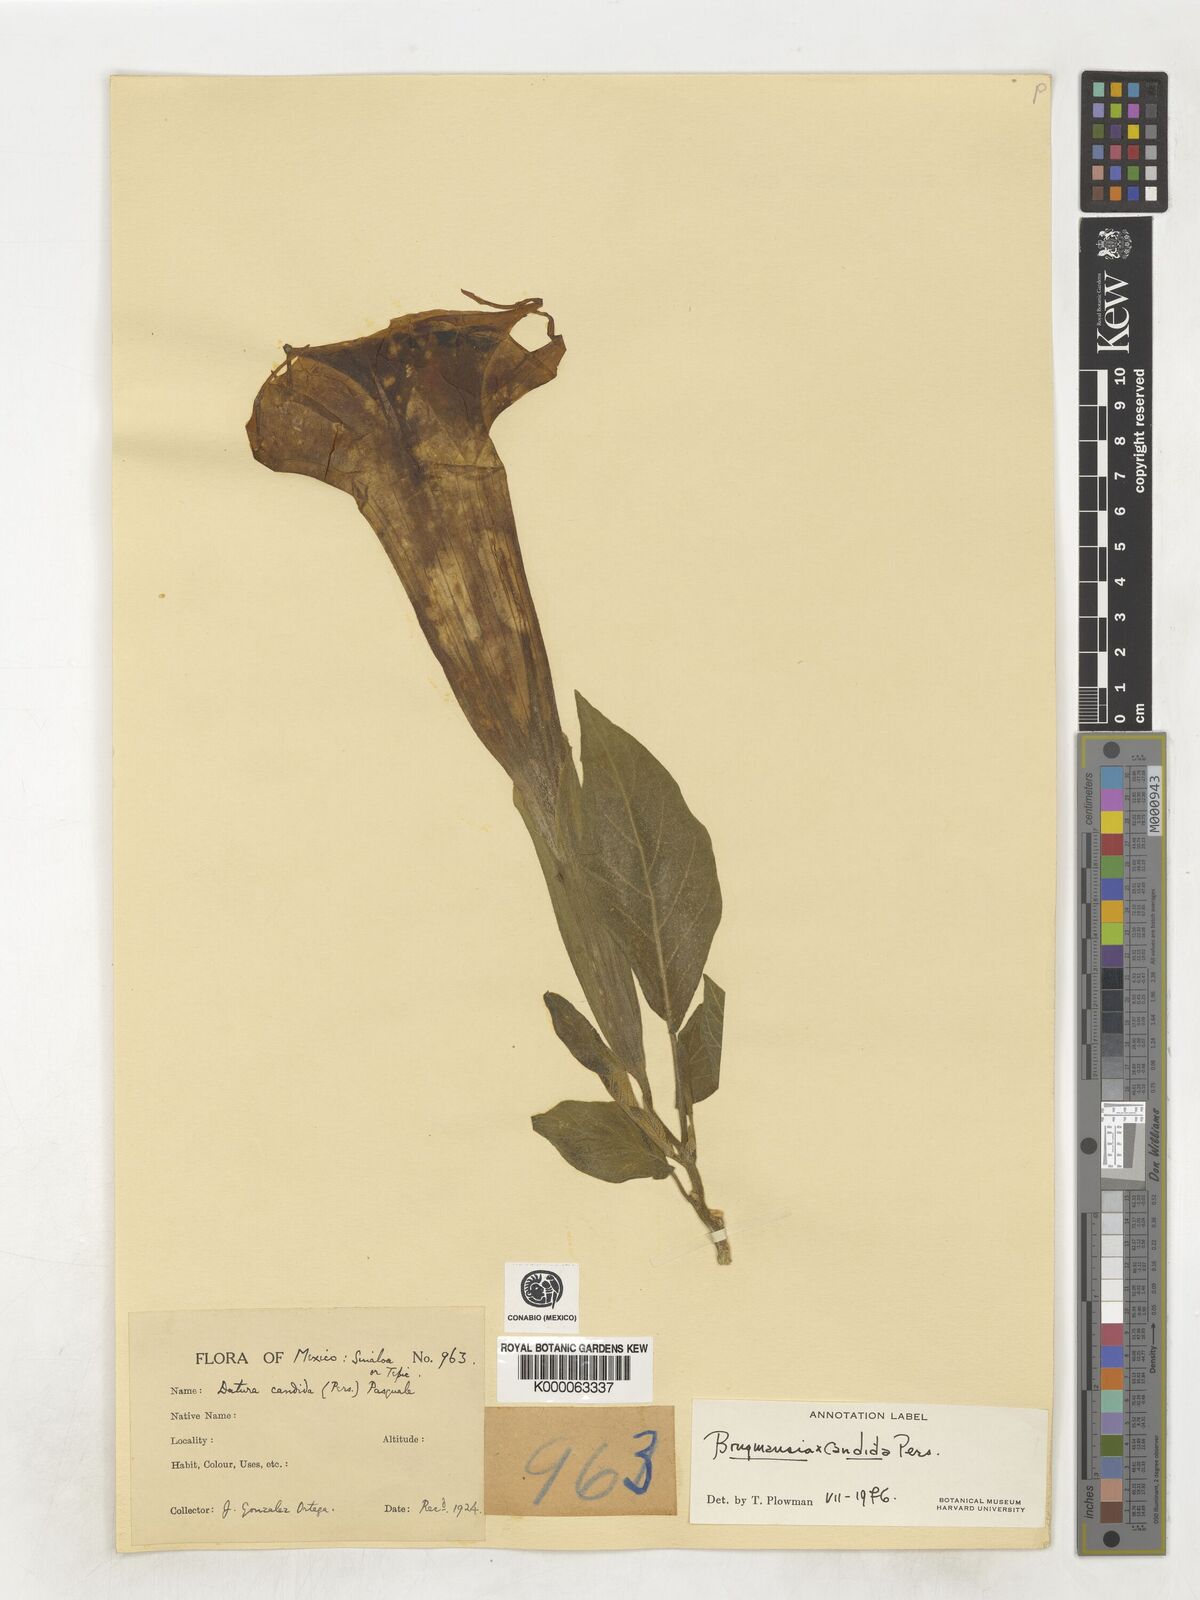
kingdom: Plantae
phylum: Tracheophyta
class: Magnoliopsida
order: Solanales
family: Solanaceae
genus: Brugmansia
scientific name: Brugmansia candida
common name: Angel's-trumpet
